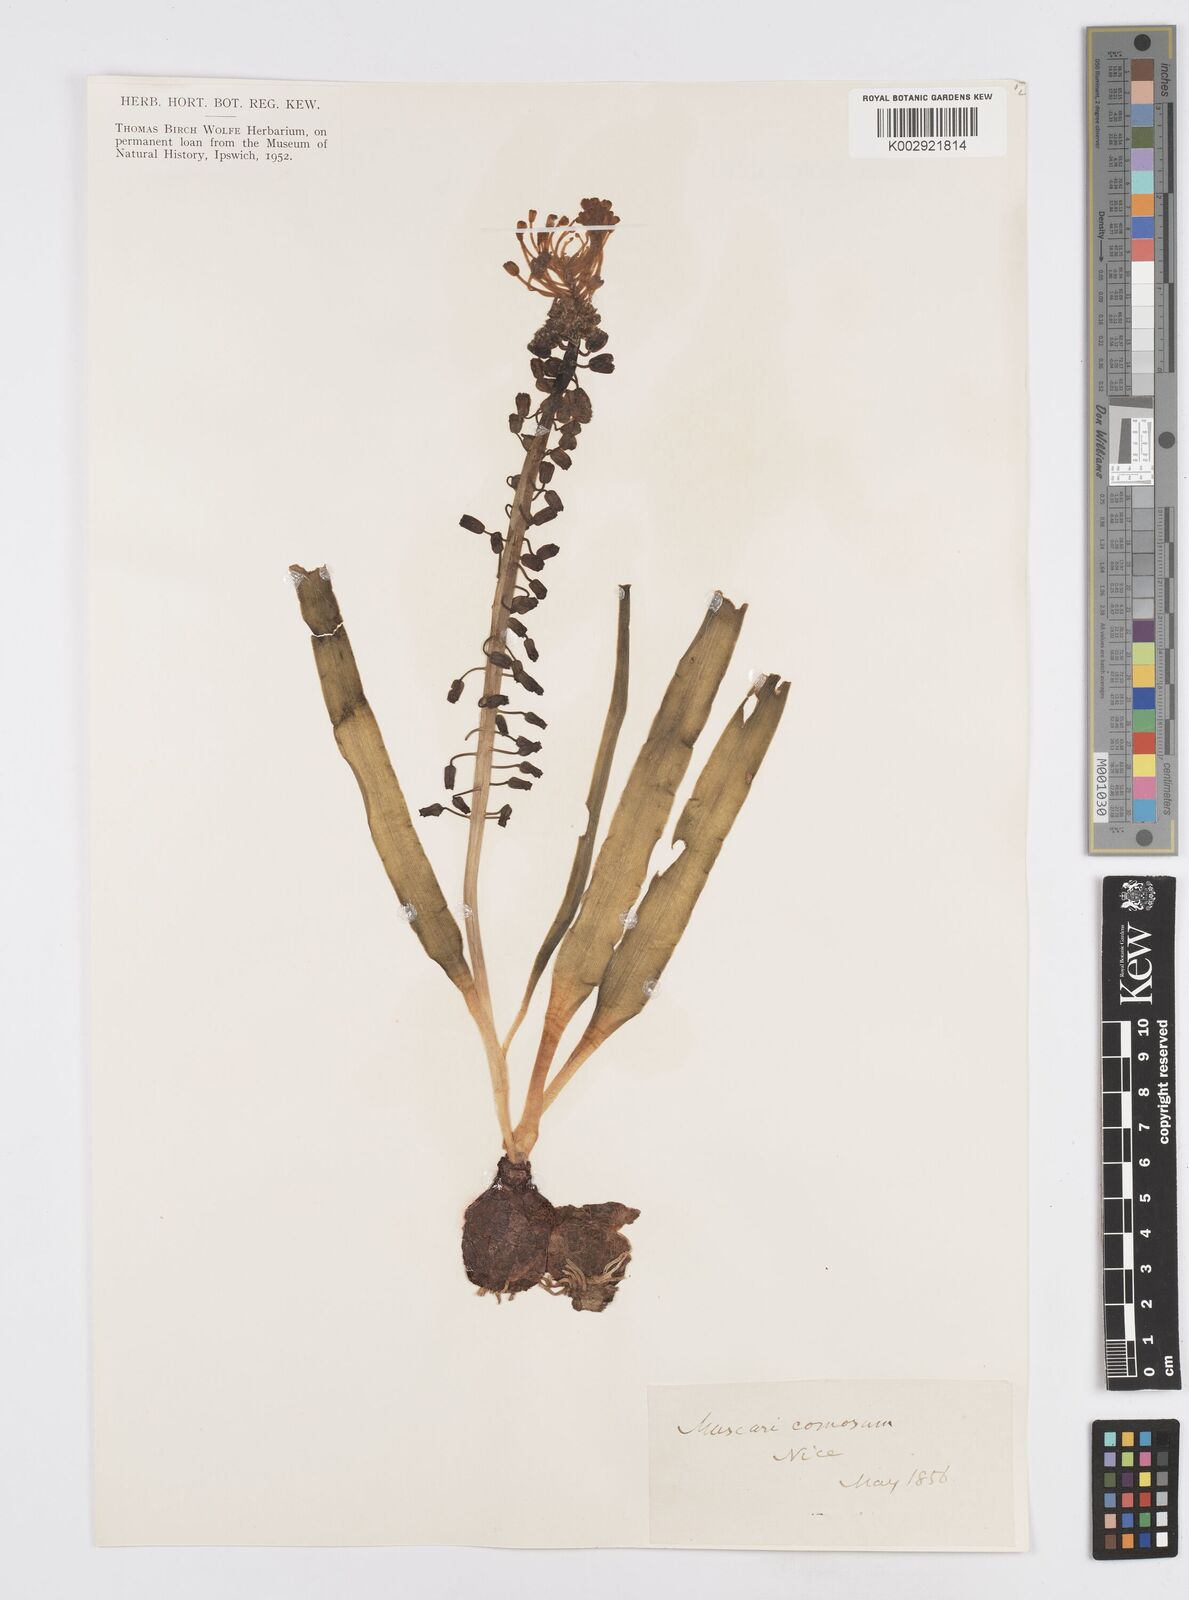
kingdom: Plantae
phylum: Tracheophyta
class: Liliopsida
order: Asparagales
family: Asparagaceae
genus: Muscari
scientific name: Muscari comosum
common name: Tassel hyacinth
